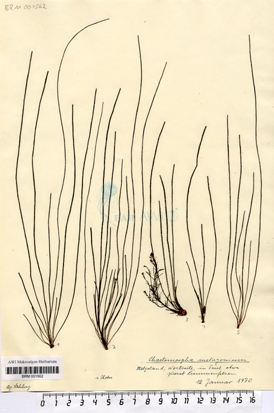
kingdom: Plantae
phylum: Chlorophyta
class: Ulvophyceae
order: Cladophorales
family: Cladophoraceae
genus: Chaetomorpha
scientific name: Chaetomorpha melagonium
